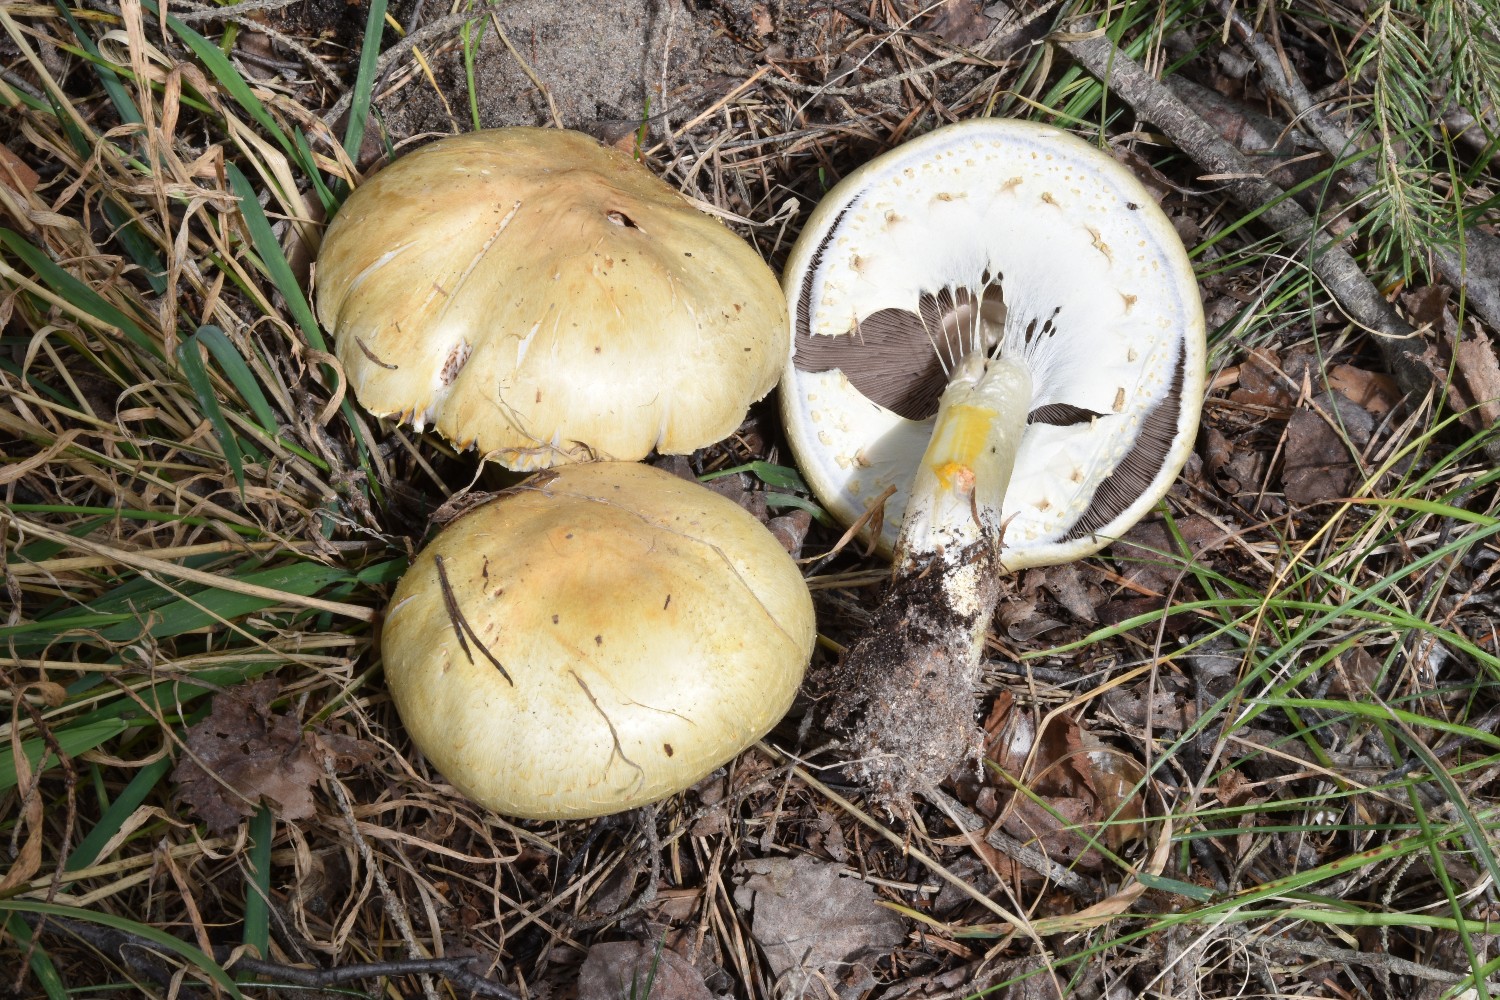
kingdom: Fungi
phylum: Basidiomycota
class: Agaricomycetes
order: Agaricales
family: Agaricaceae
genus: Agaricus
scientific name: Agaricus sylvicola
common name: gulhvid champignon
